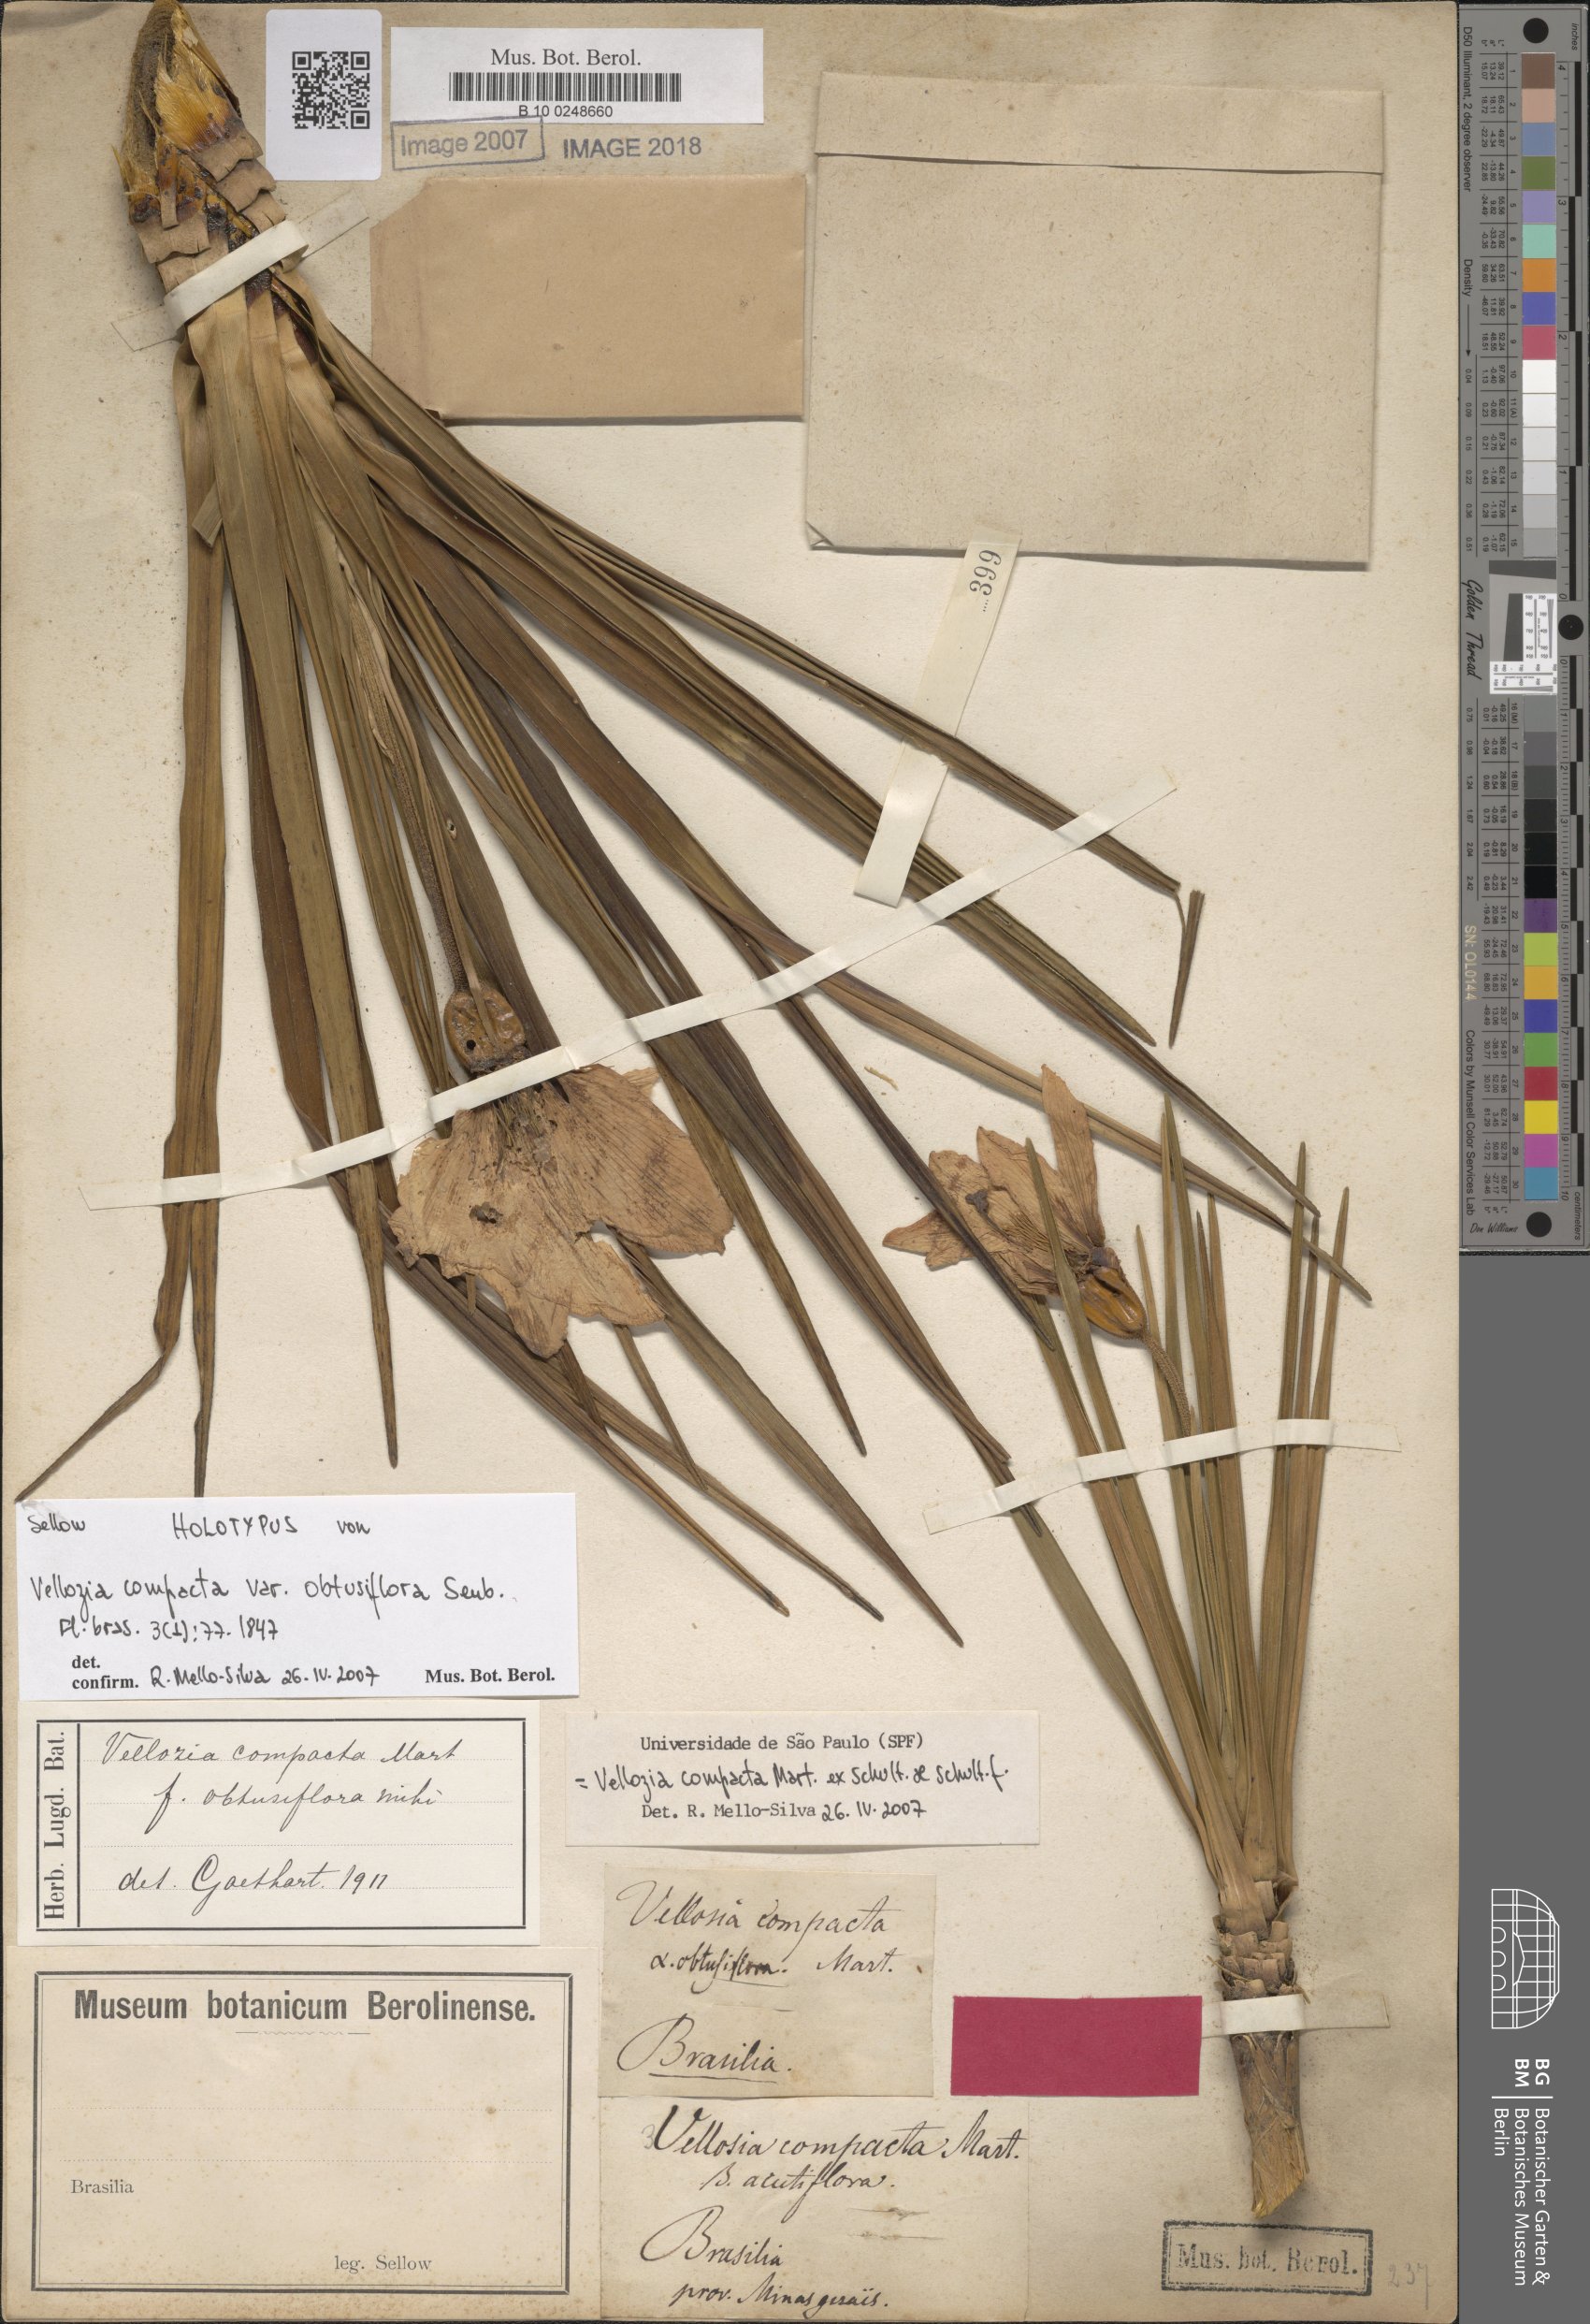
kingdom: Plantae
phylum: Tracheophyta
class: Liliopsida
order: Pandanales
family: Velloziaceae
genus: Vellozia
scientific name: Vellozia compacta
